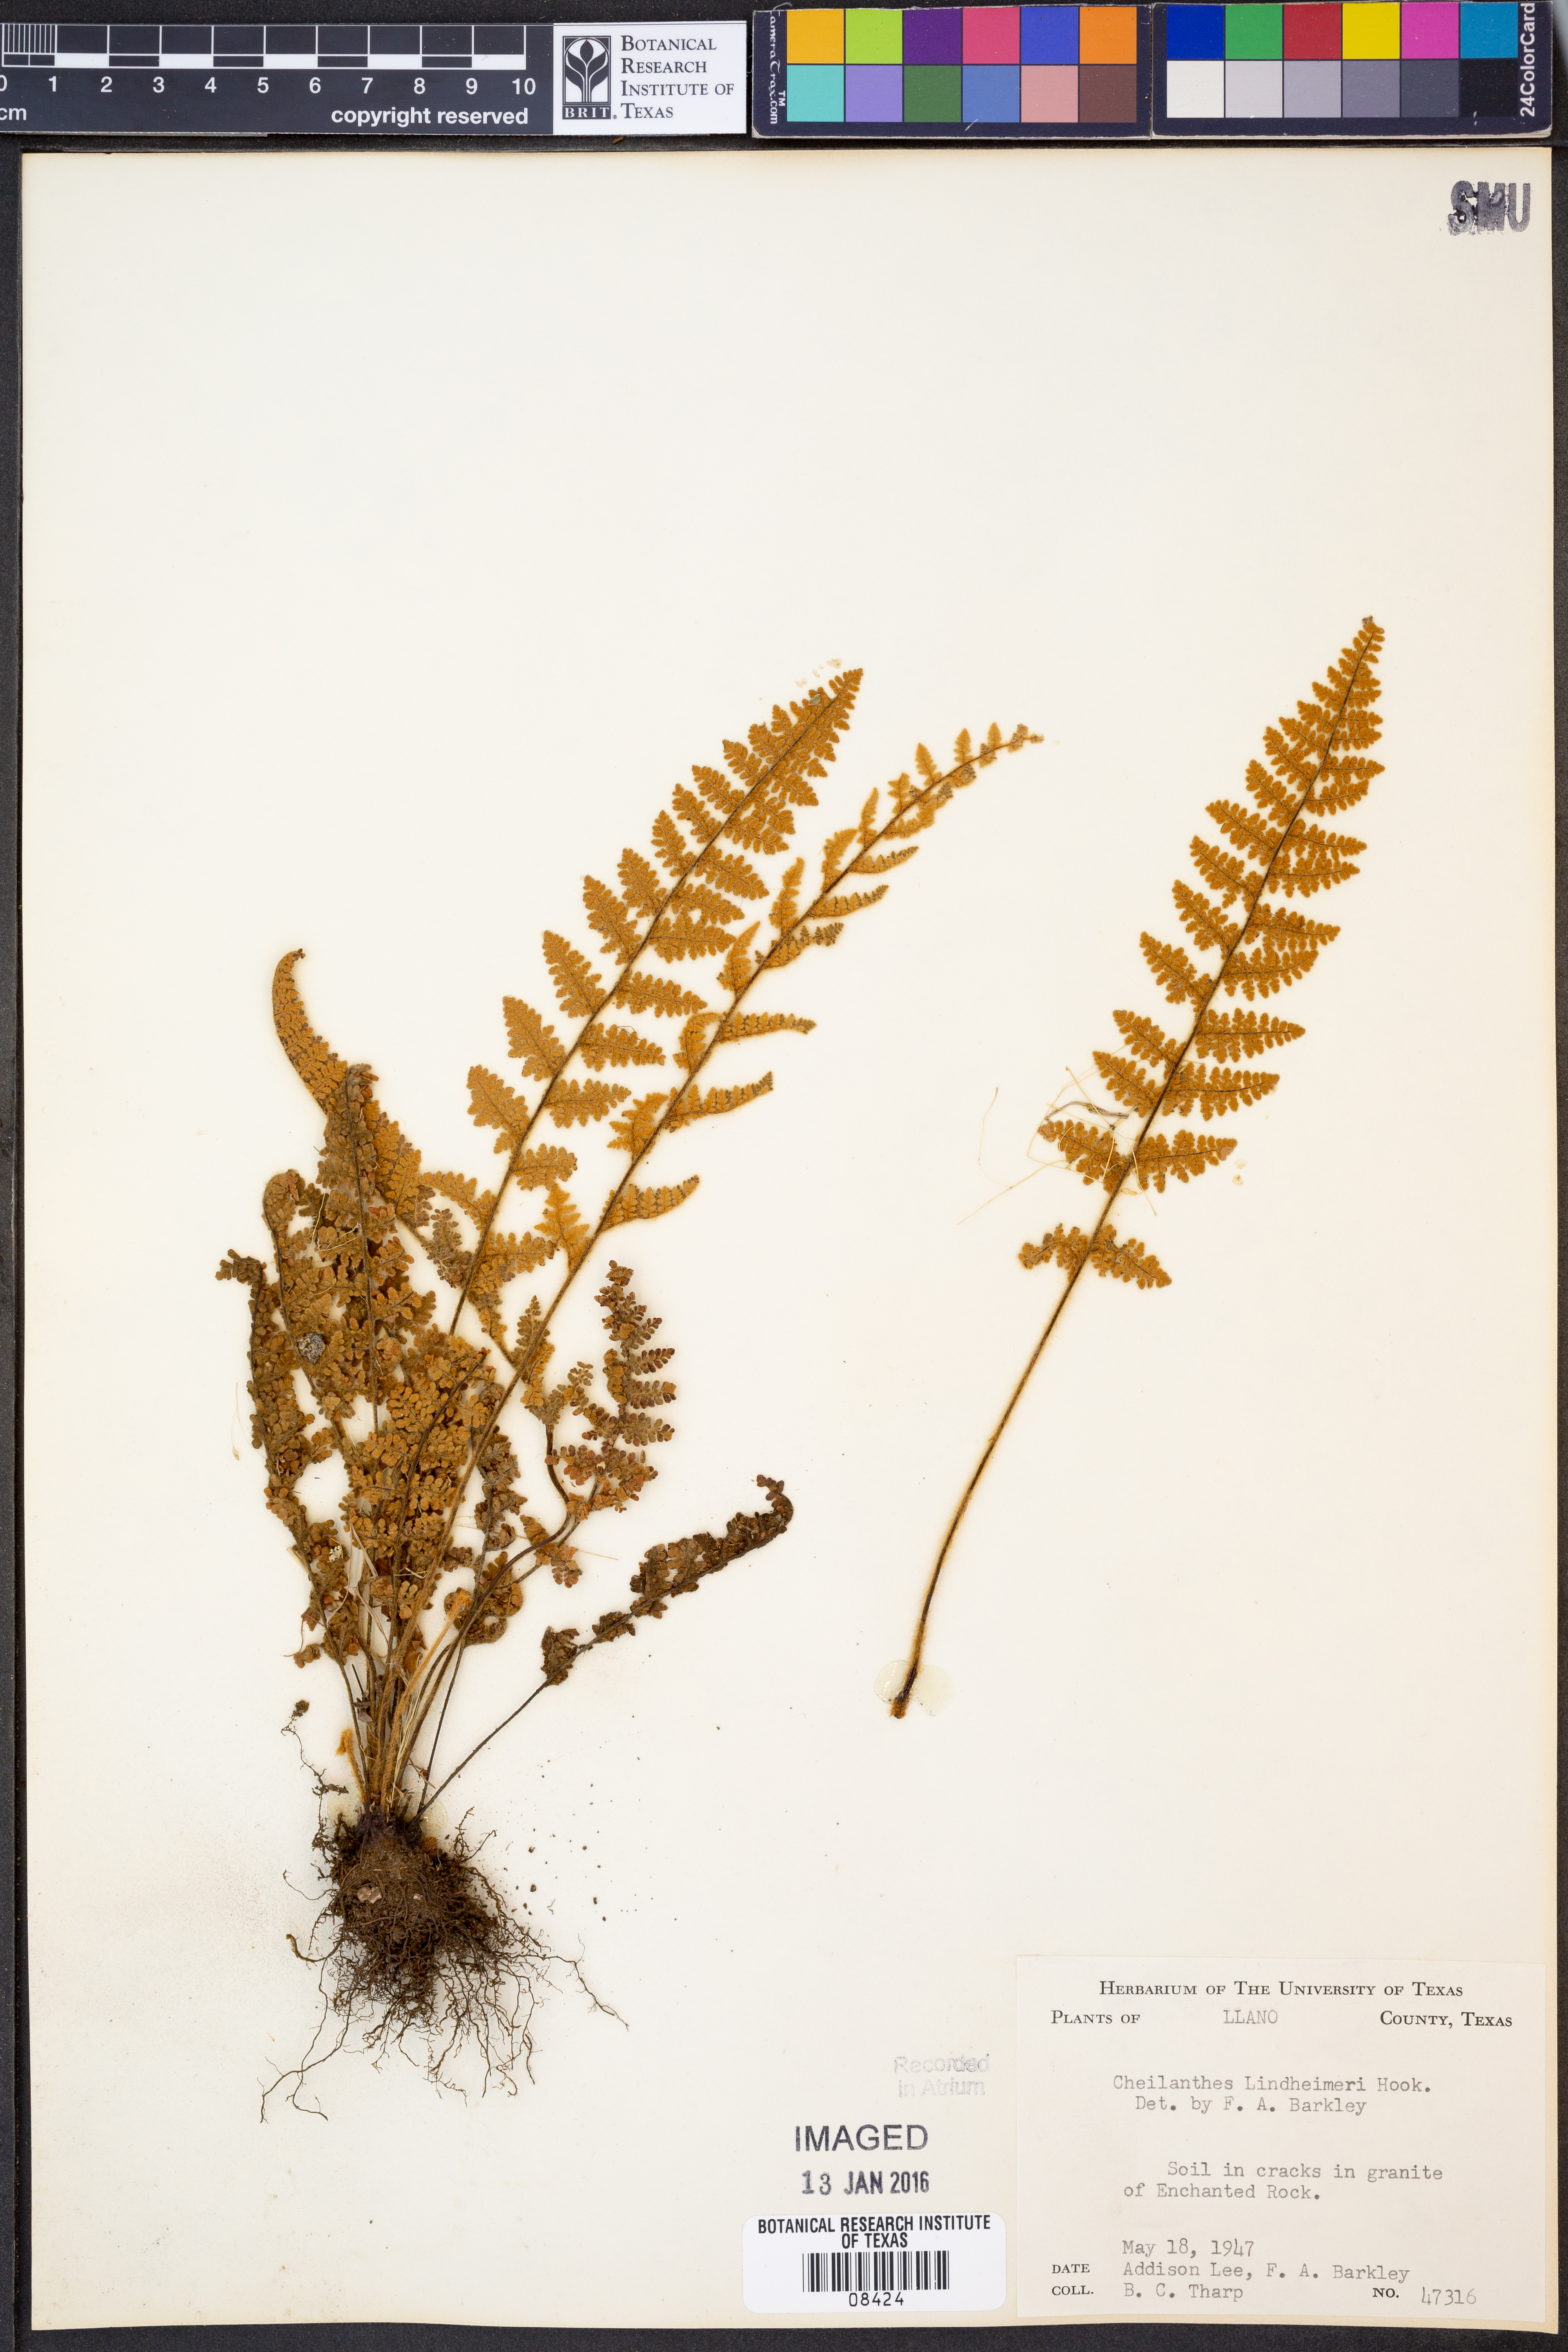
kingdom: Plantae
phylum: Tracheophyta
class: Polypodiopsida
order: Polypodiales
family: Pteridaceae
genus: Myriopteris
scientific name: Myriopteris lindheimeri
